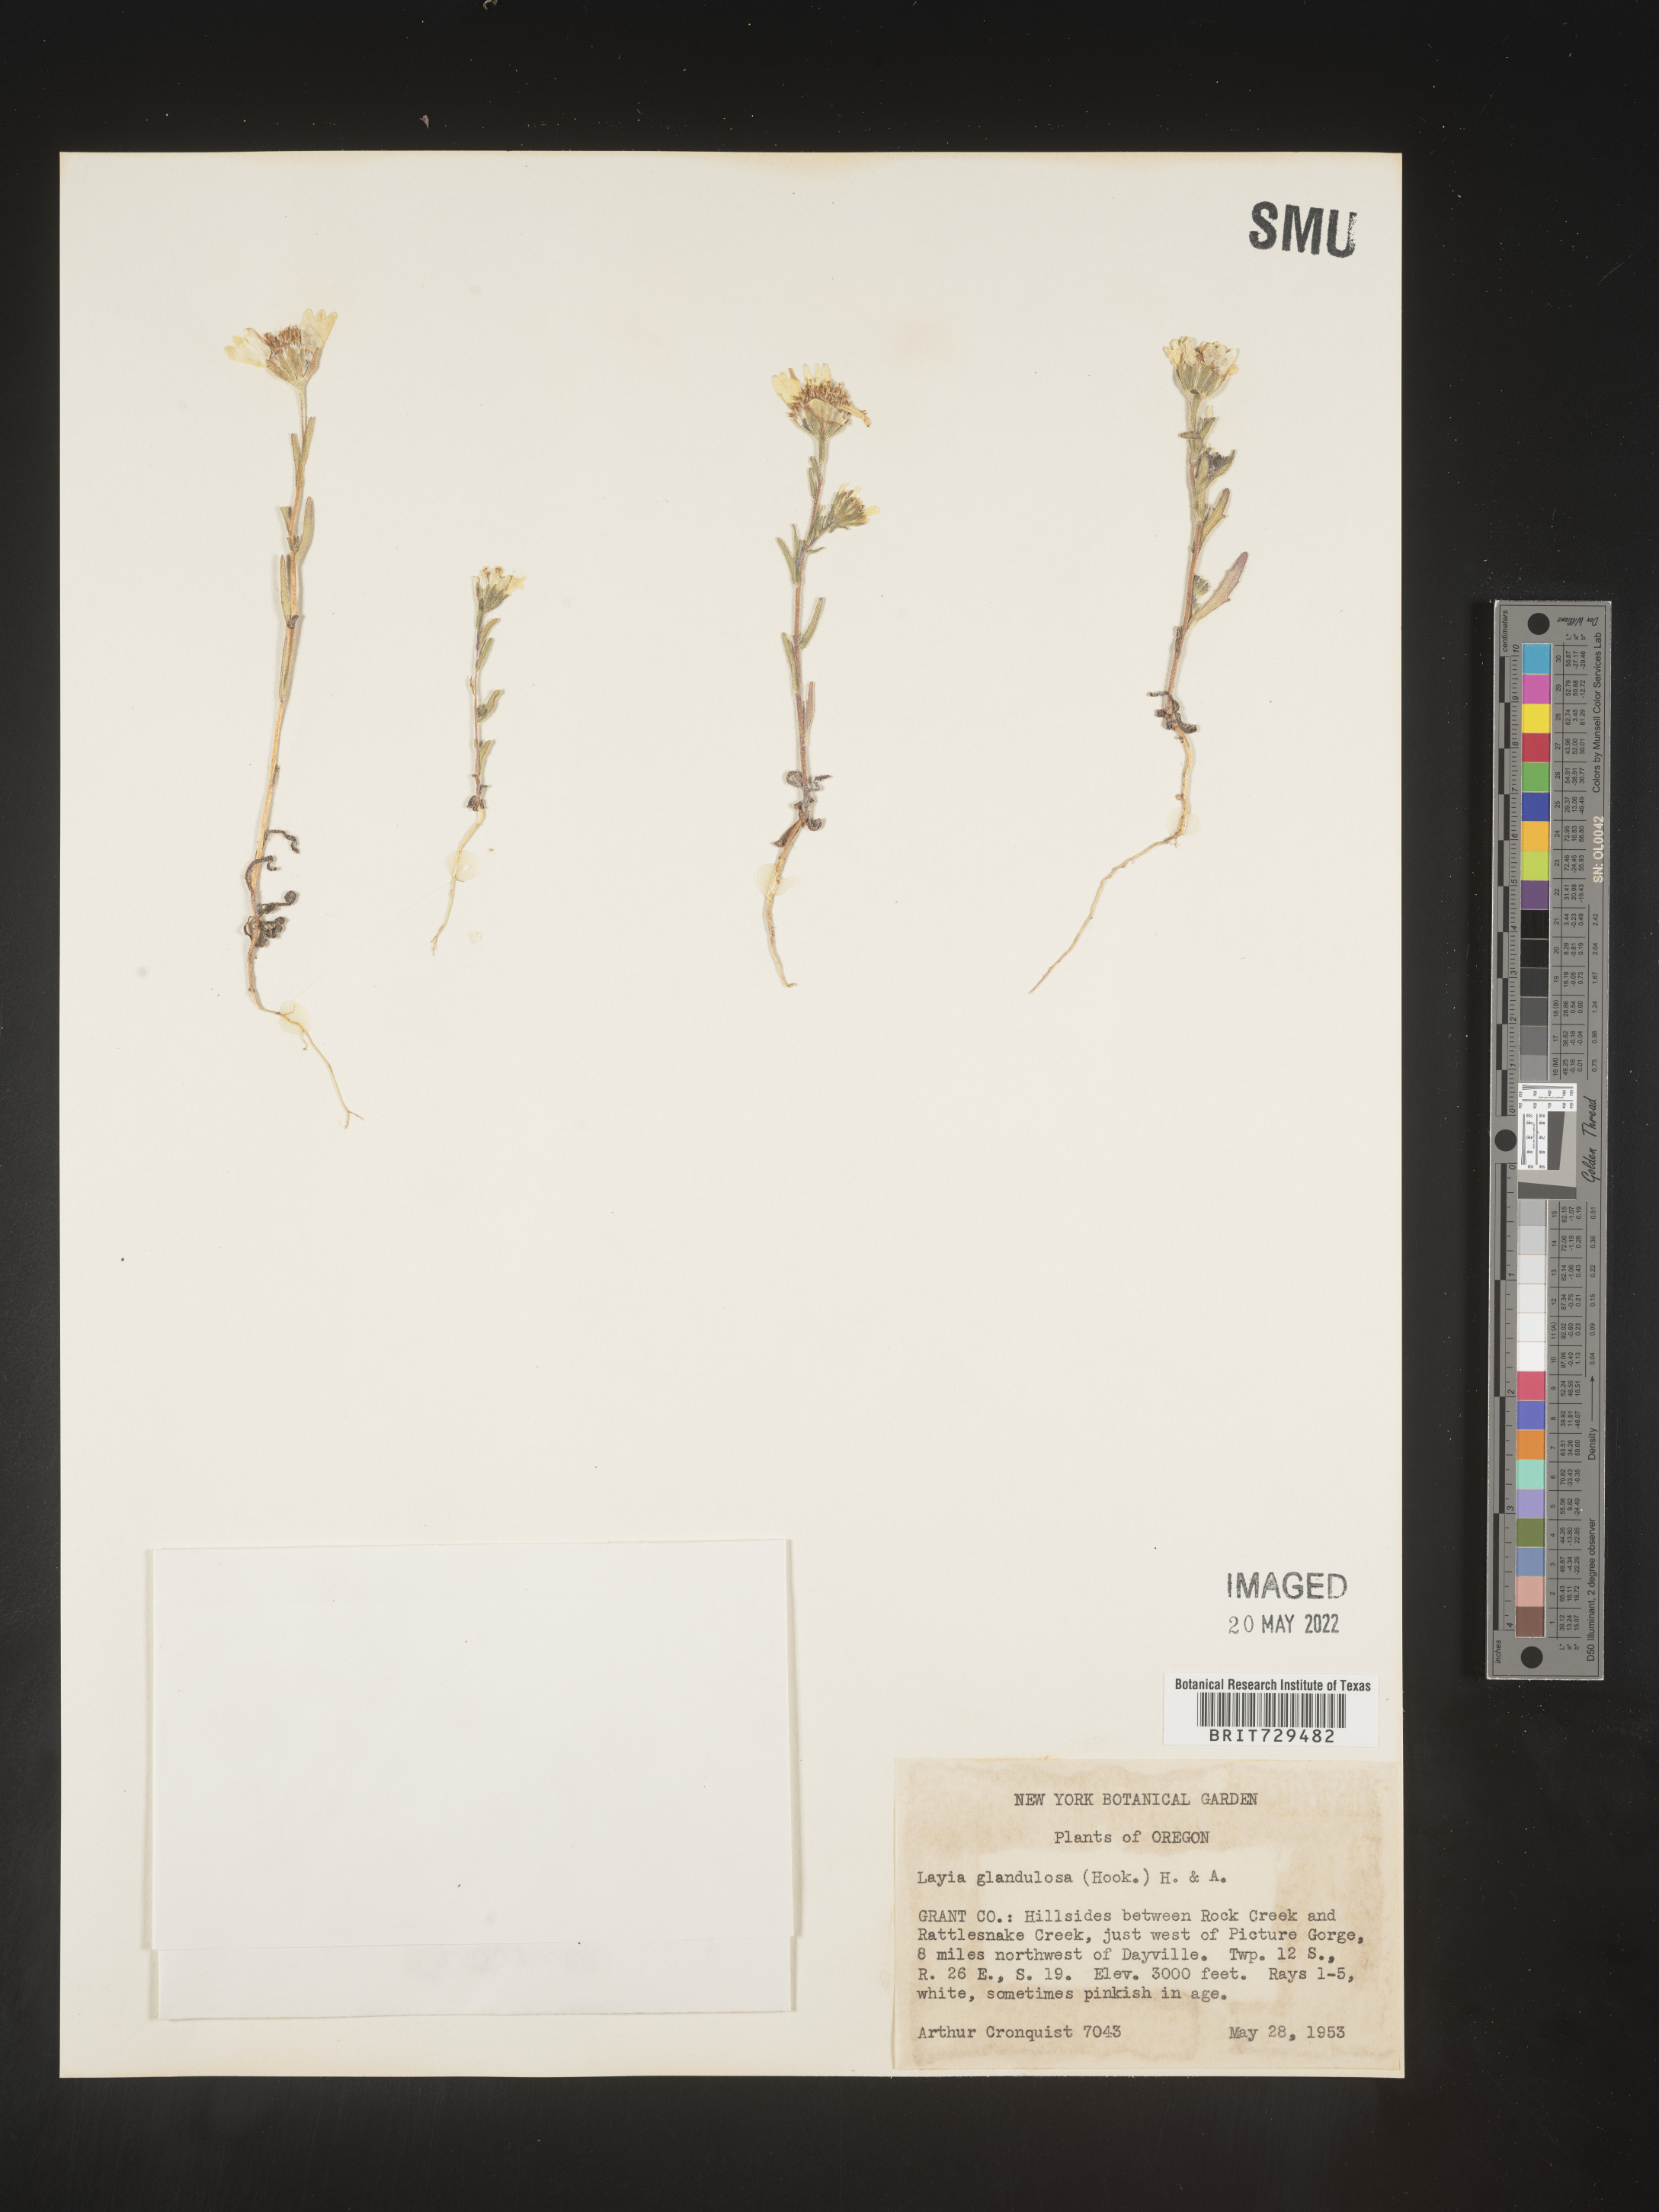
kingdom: Plantae
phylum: Tracheophyta
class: Magnoliopsida
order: Asterales
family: Asteraceae
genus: Layia
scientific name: Layia
